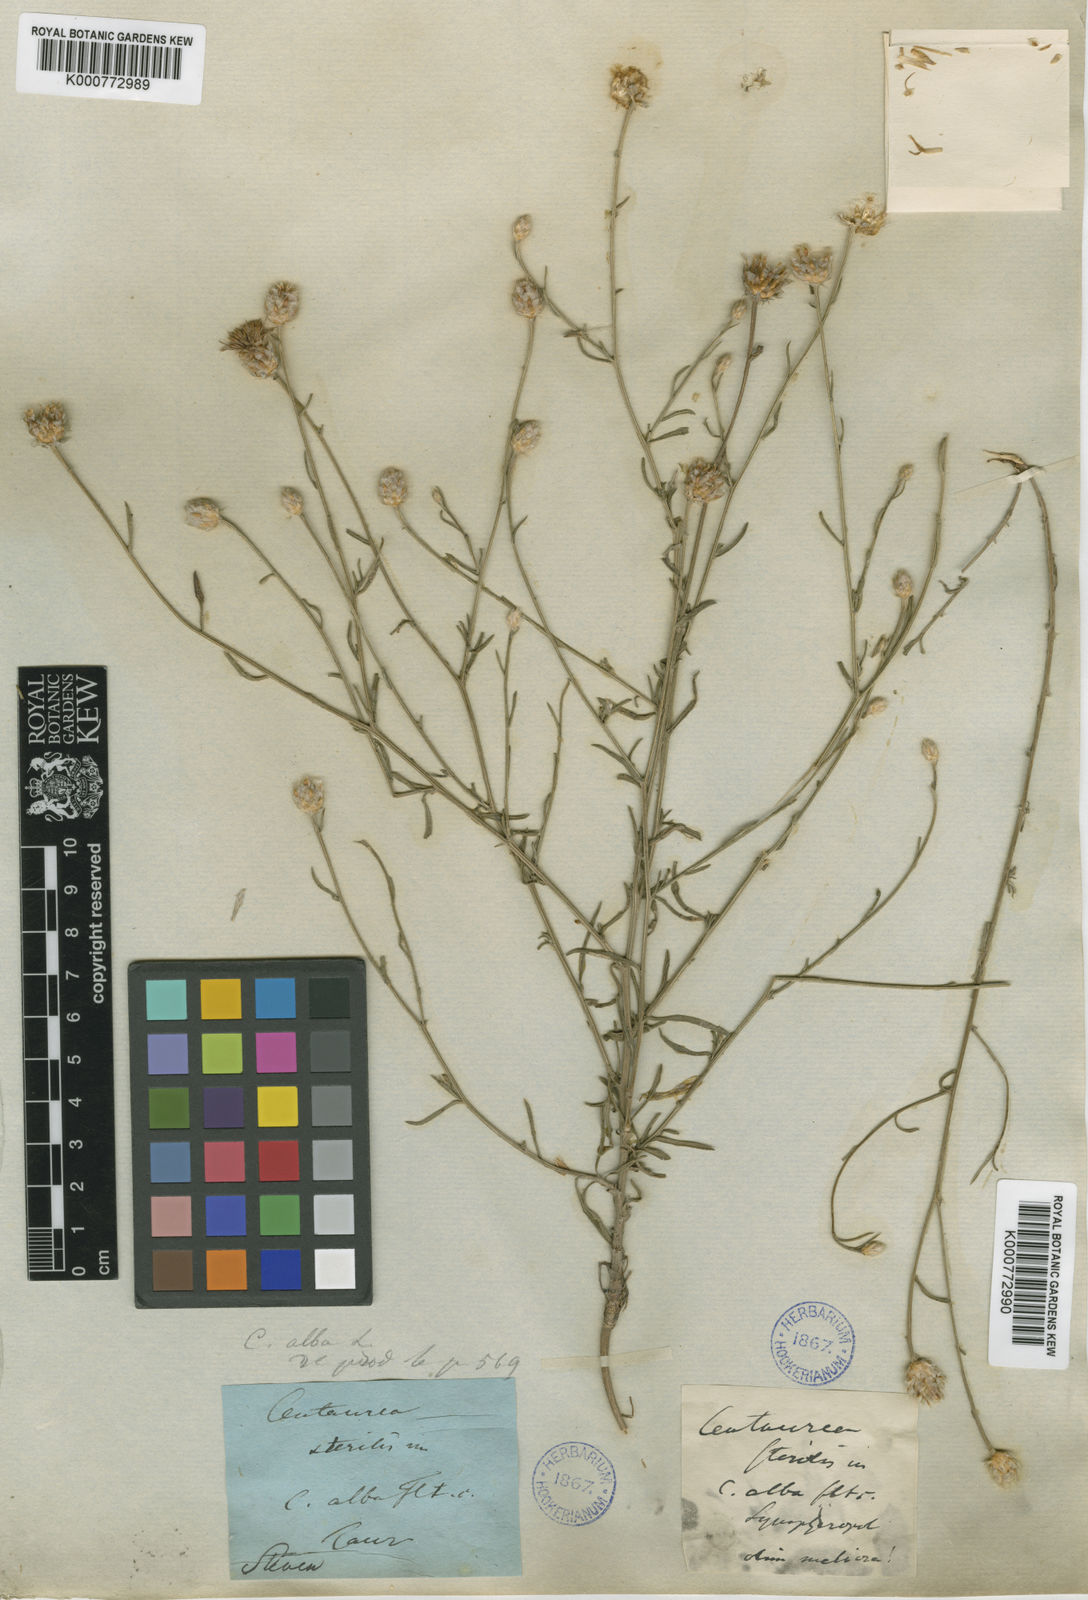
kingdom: Plantae
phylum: Tracheophyta
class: Magnoliopsida
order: Asterales
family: Asteraceae
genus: Centaurea
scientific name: Centaurea sterilis
